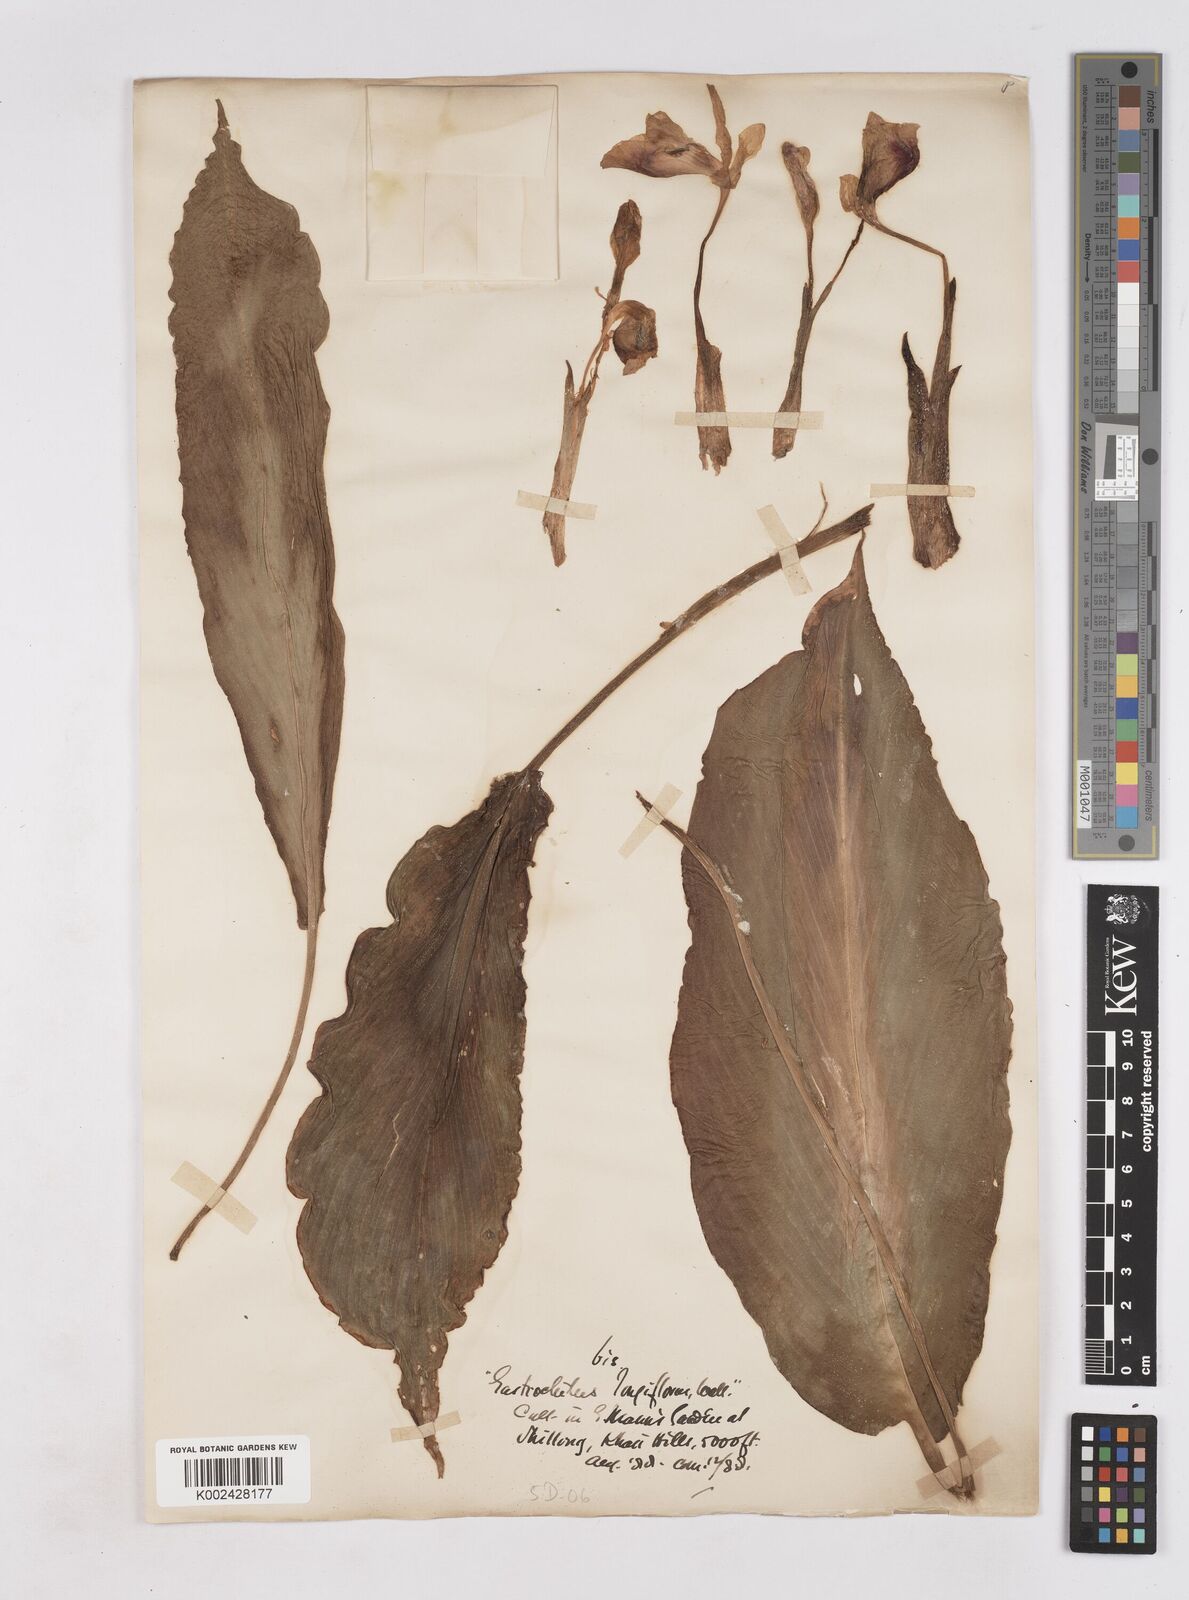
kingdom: Plantae
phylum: Tracheophyta
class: Liliopsida
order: Zingiberales
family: Zingiberaceae
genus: Boesenbergia
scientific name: Boesenbergia longiflora
